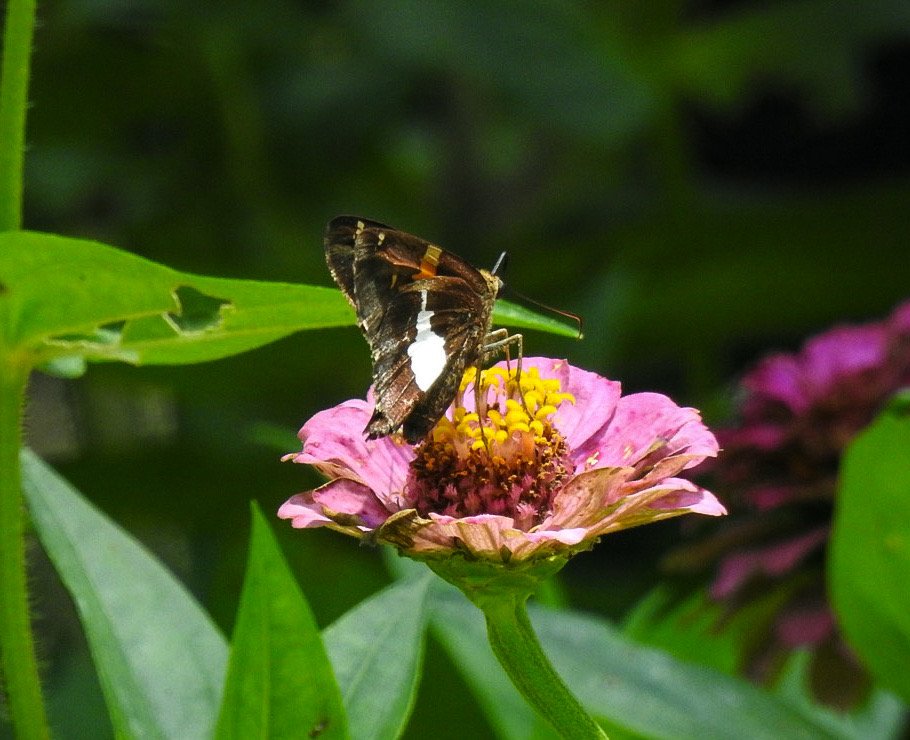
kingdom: Animalia
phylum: Arthropoda
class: Insecta
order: Lepidoptera
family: Hesperiidae
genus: Epargyreus
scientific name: Epargyreus clarus
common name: Silver-spotted Skipper
